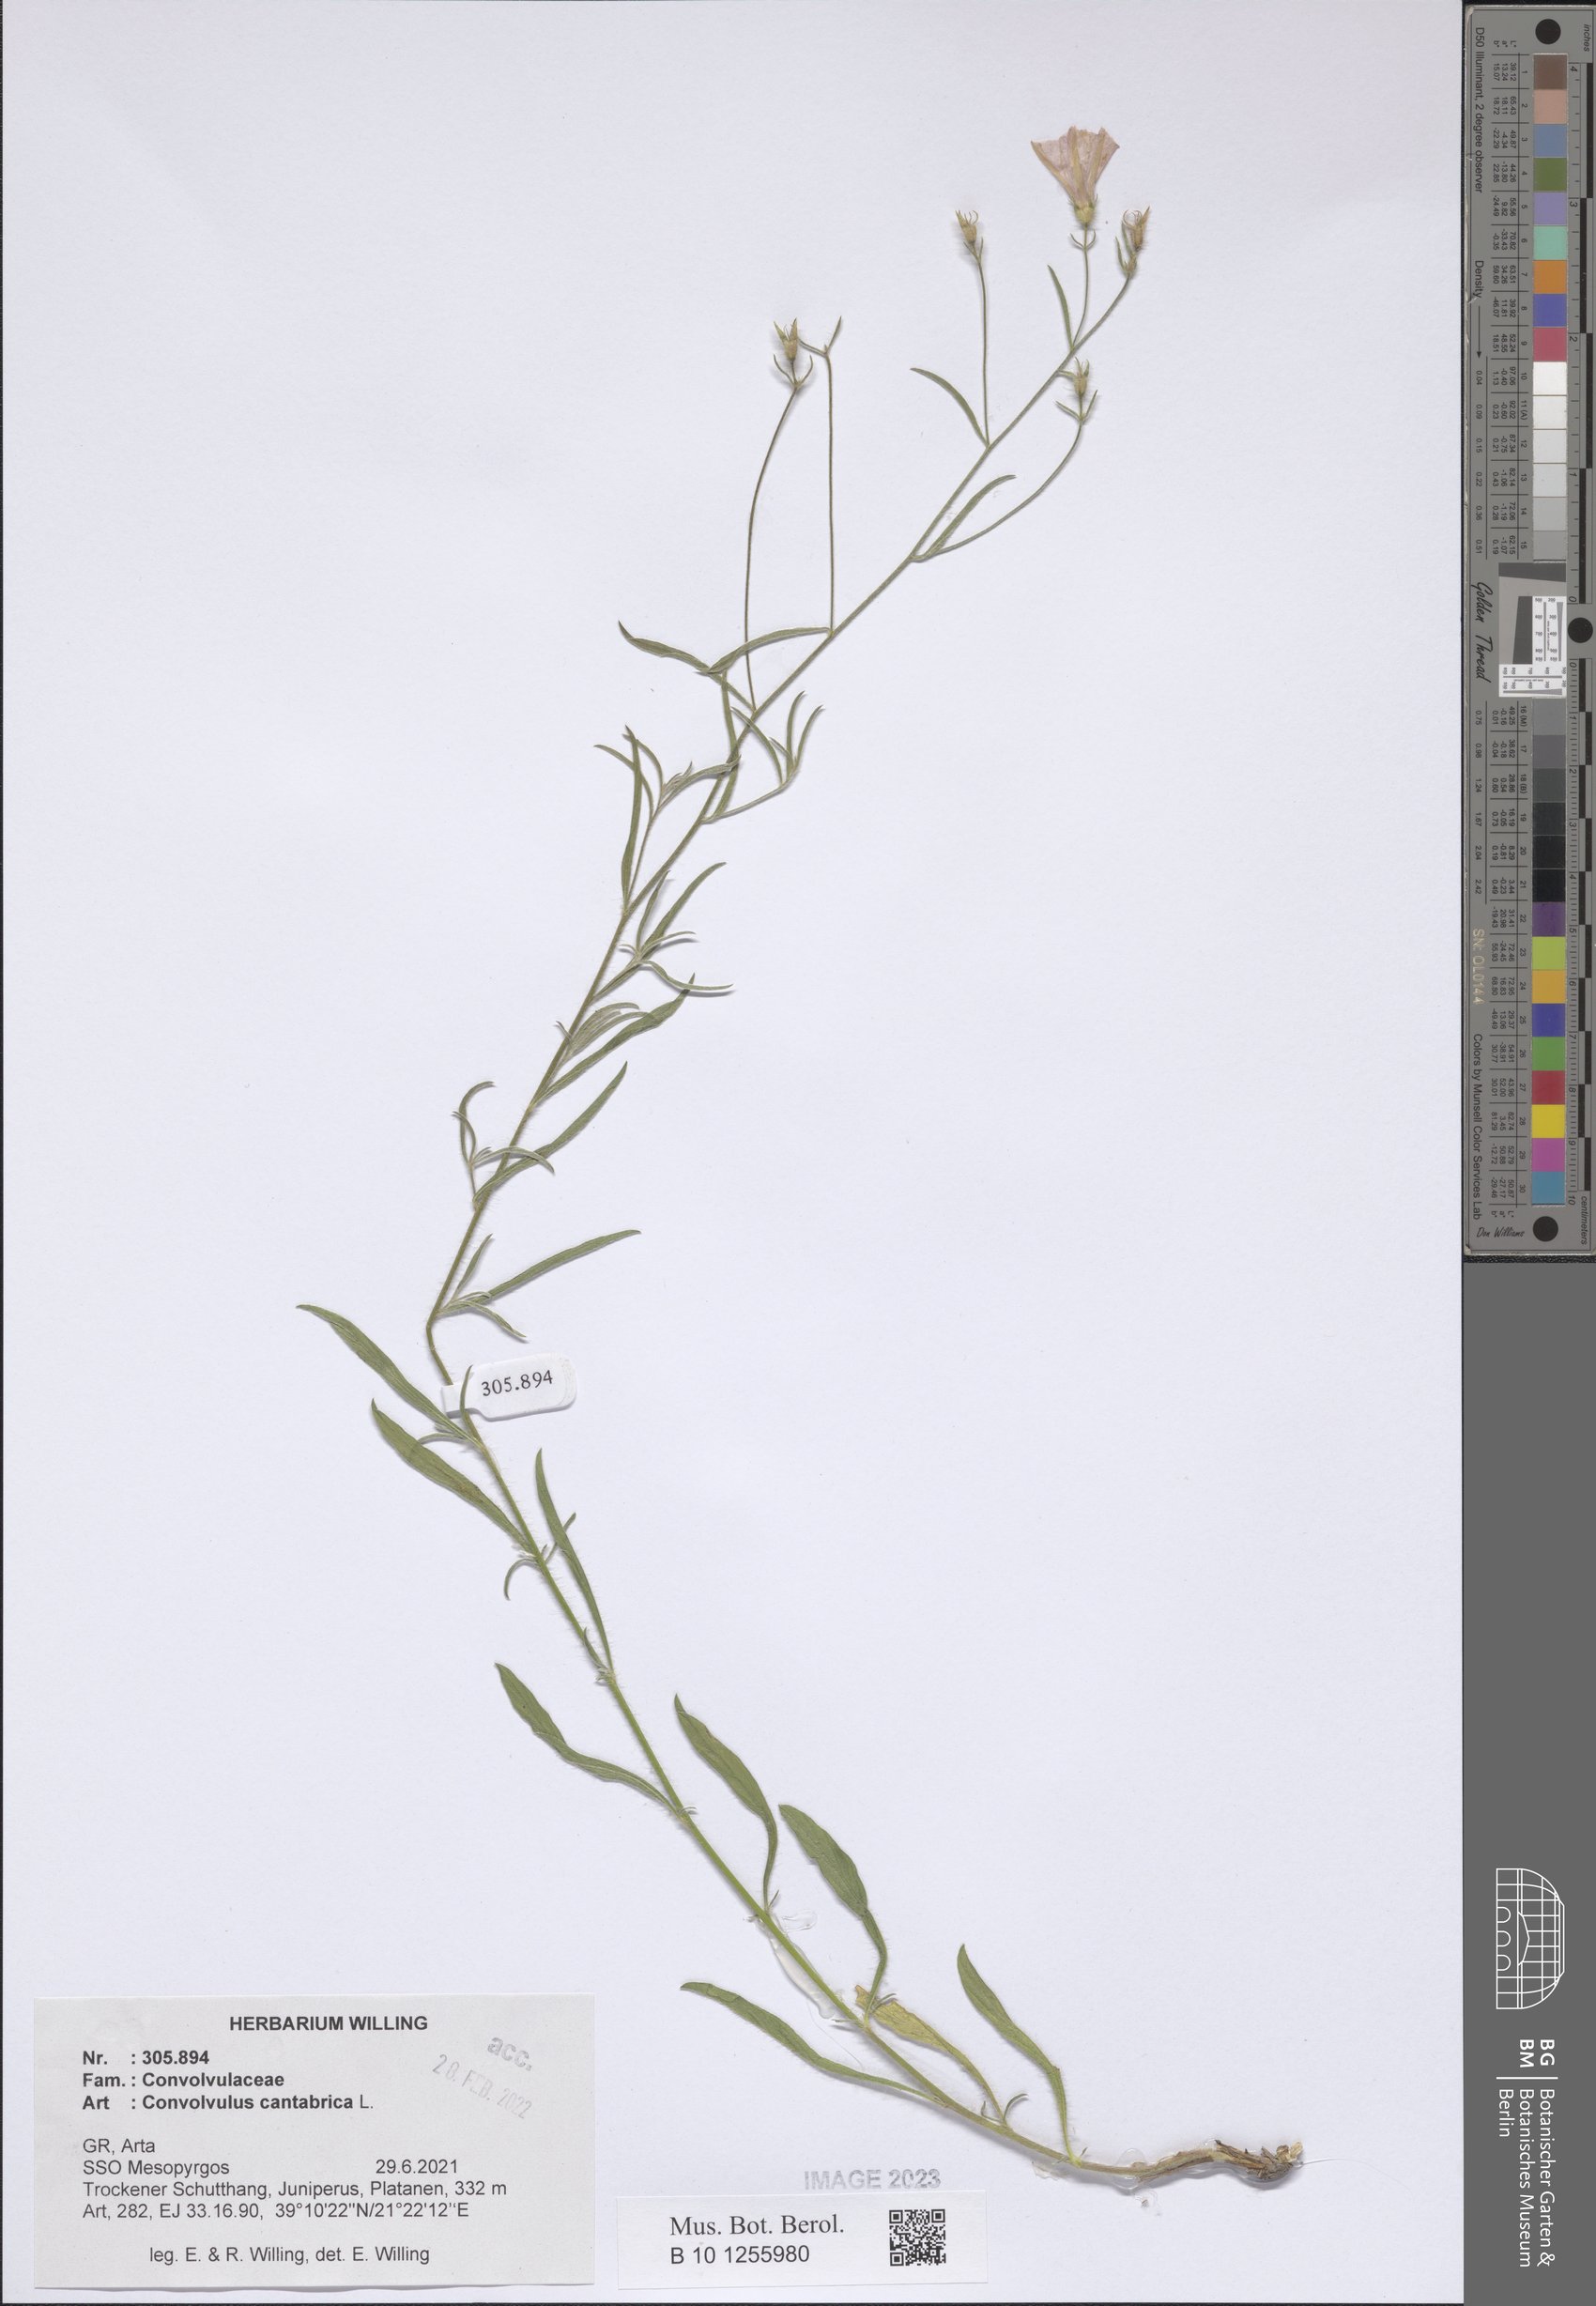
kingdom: Plantae
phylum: Tracheophyta
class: Magnoliopsida
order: Solanales
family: Convolvulaceae
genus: Convolvulus
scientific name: Convolvulus cantabrica
